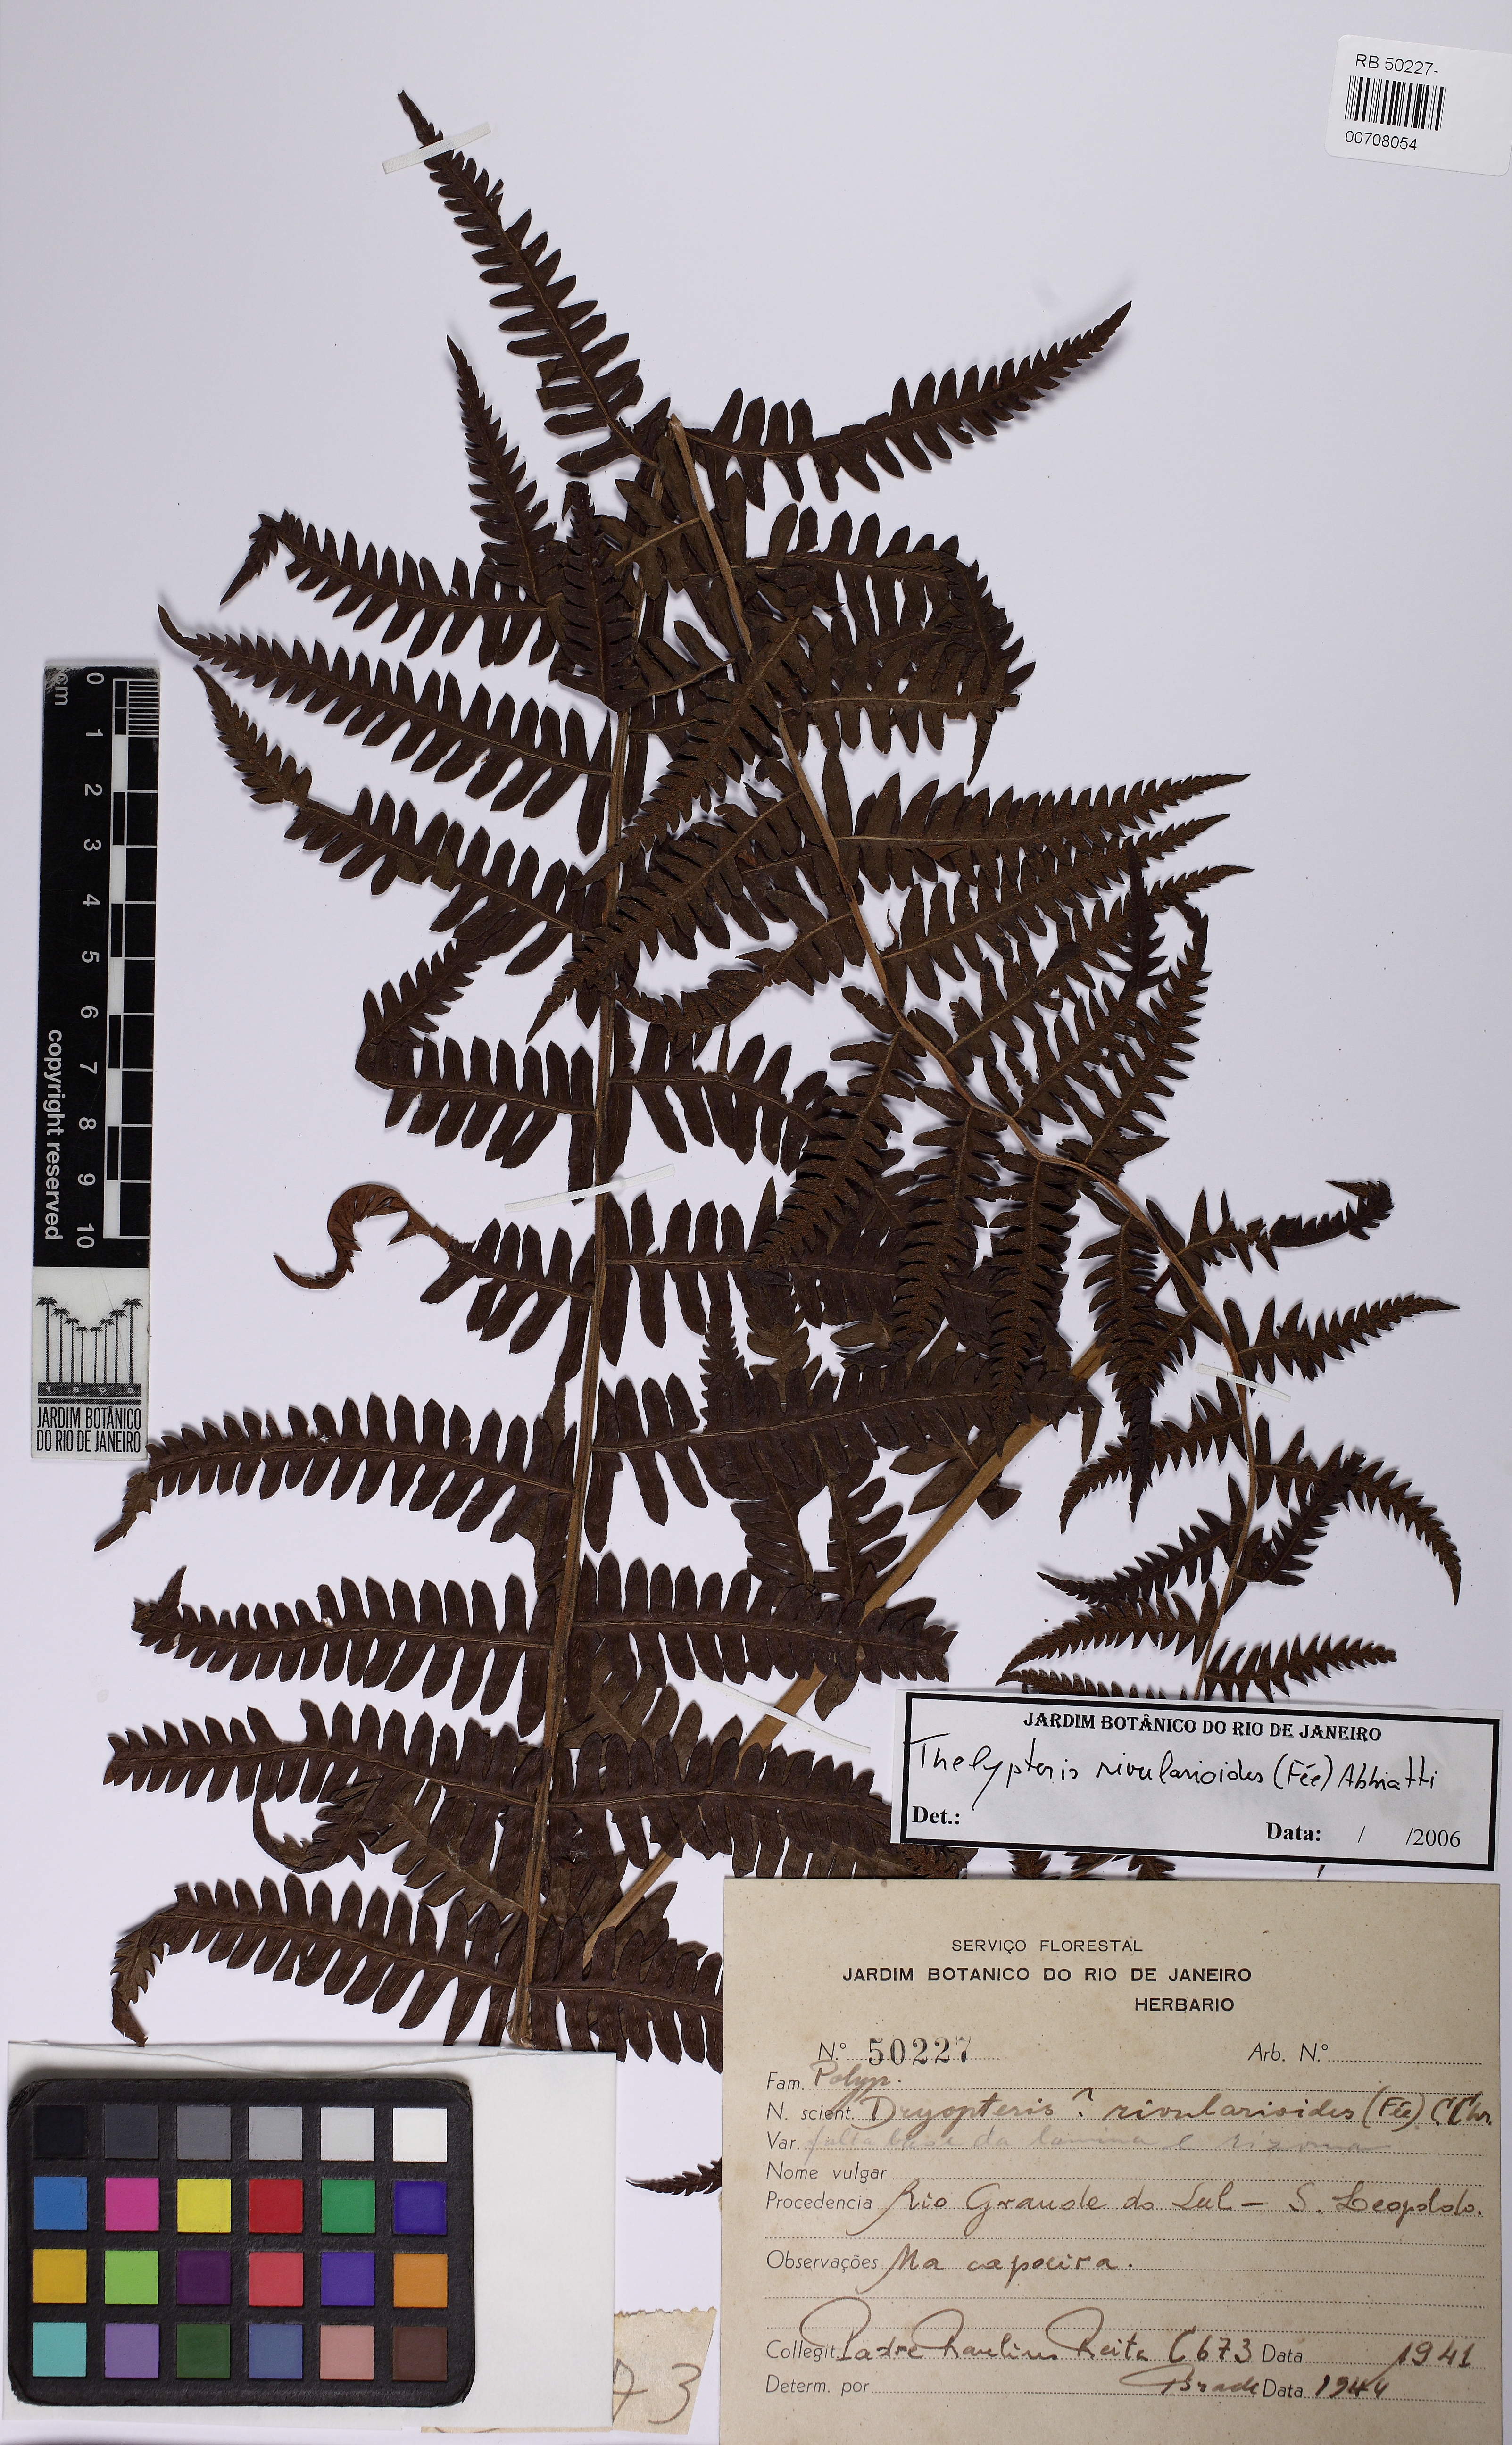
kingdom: Plantae
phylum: Tracheophyta
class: Polypodiopsida
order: Polypodiales
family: Thelypteridaceae
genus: Amauropelta
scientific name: Amauropelta rivularioides
